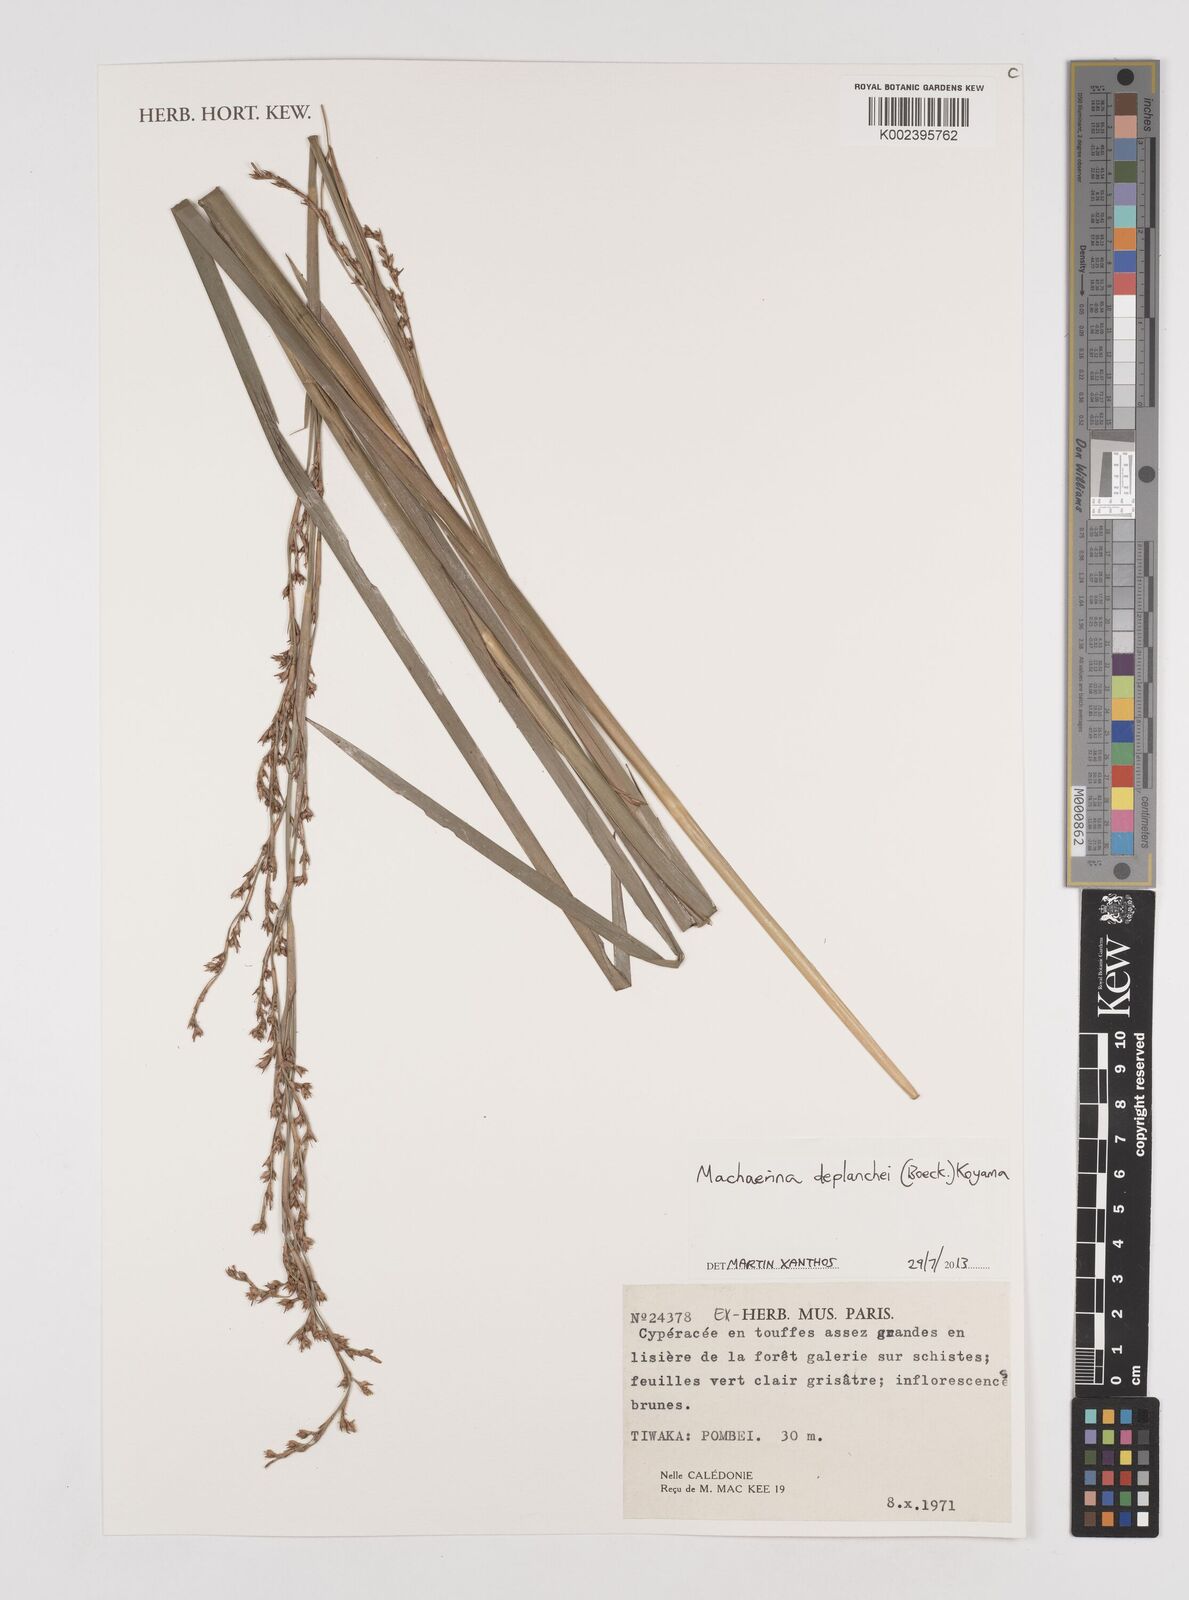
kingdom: Plantae
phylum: Tracheophyta
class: Liliopsida
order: Poales
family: Cyperaceae
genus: Machaerina
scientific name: Machaerina deplanchei
